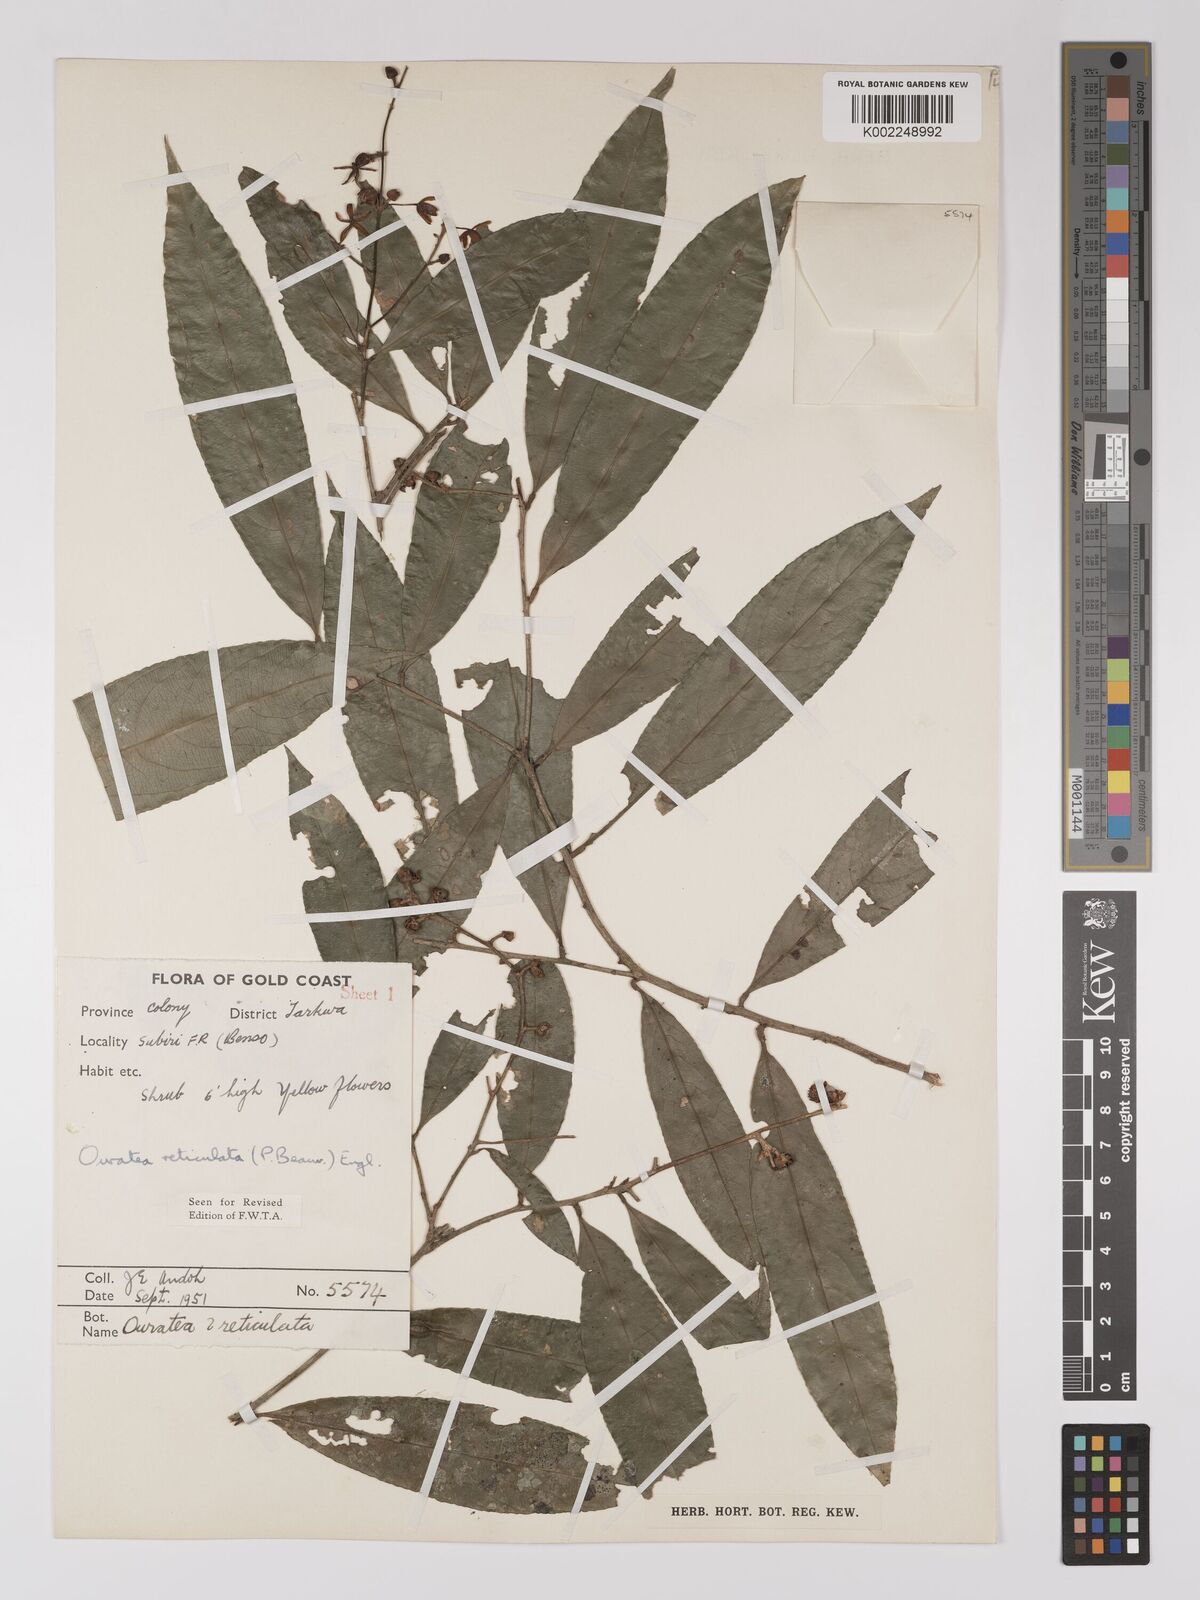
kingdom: Plantae
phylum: Tracheophyta
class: Magnoliopsida
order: Malpighiales
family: Ochnaceae
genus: Campylospermum
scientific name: Campylospermum reticulatum
